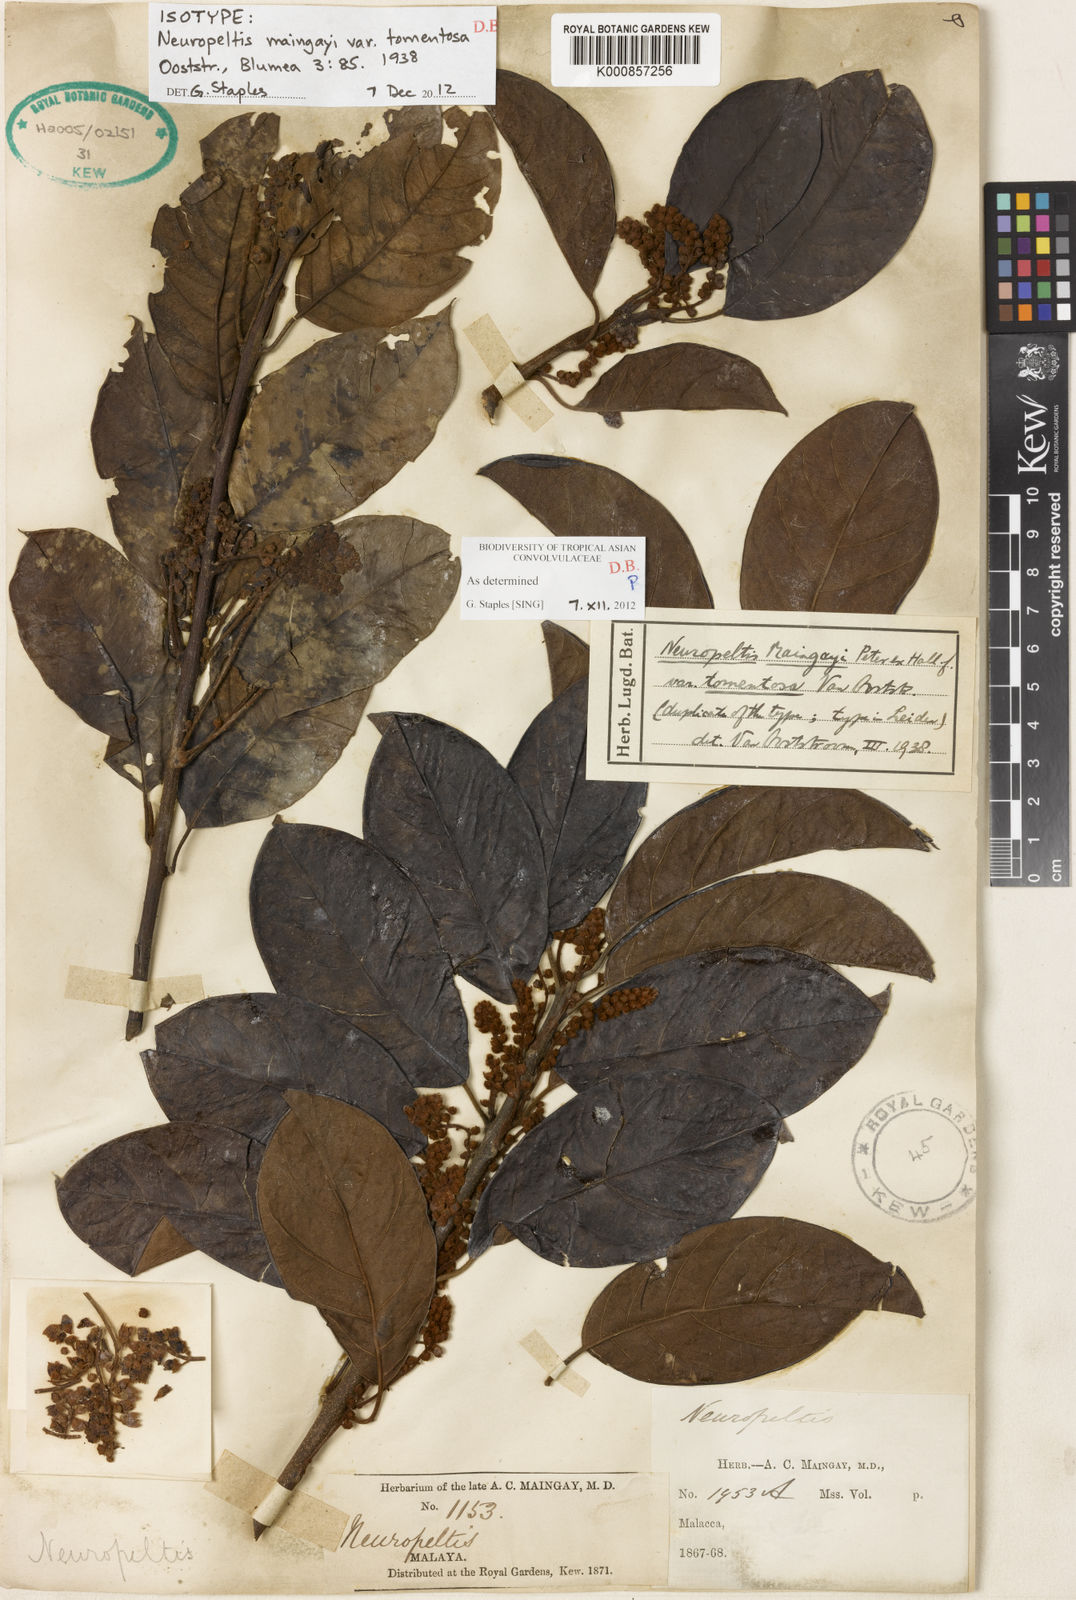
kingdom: Plantae
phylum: Tracheophyta
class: Magnoliopsida
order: Solanales
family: Convolvulaceae
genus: Argyreia
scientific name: Argyreia maingayi
